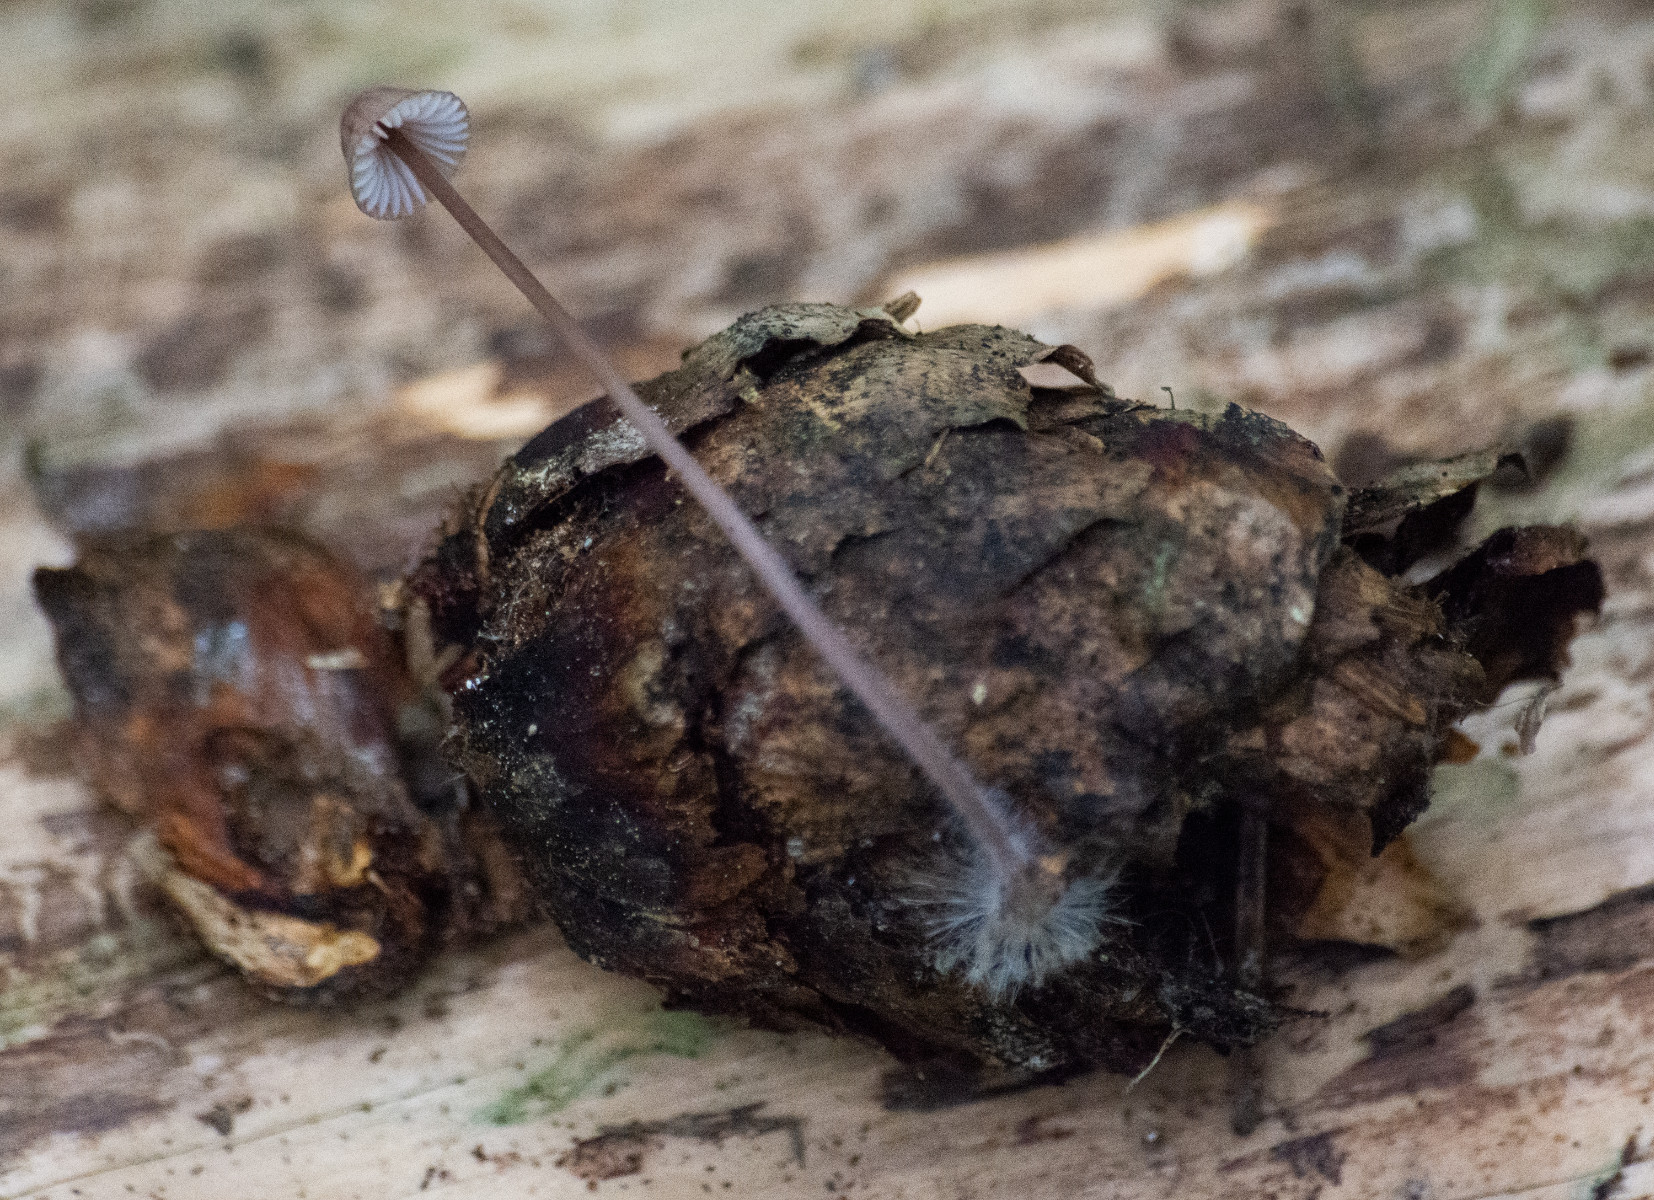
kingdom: Fungi
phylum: Basidiomycota
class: Agaricomycetes
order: Agaricales
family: Mycenaceae
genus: Mycena
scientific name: Mycena
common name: huesvamp
